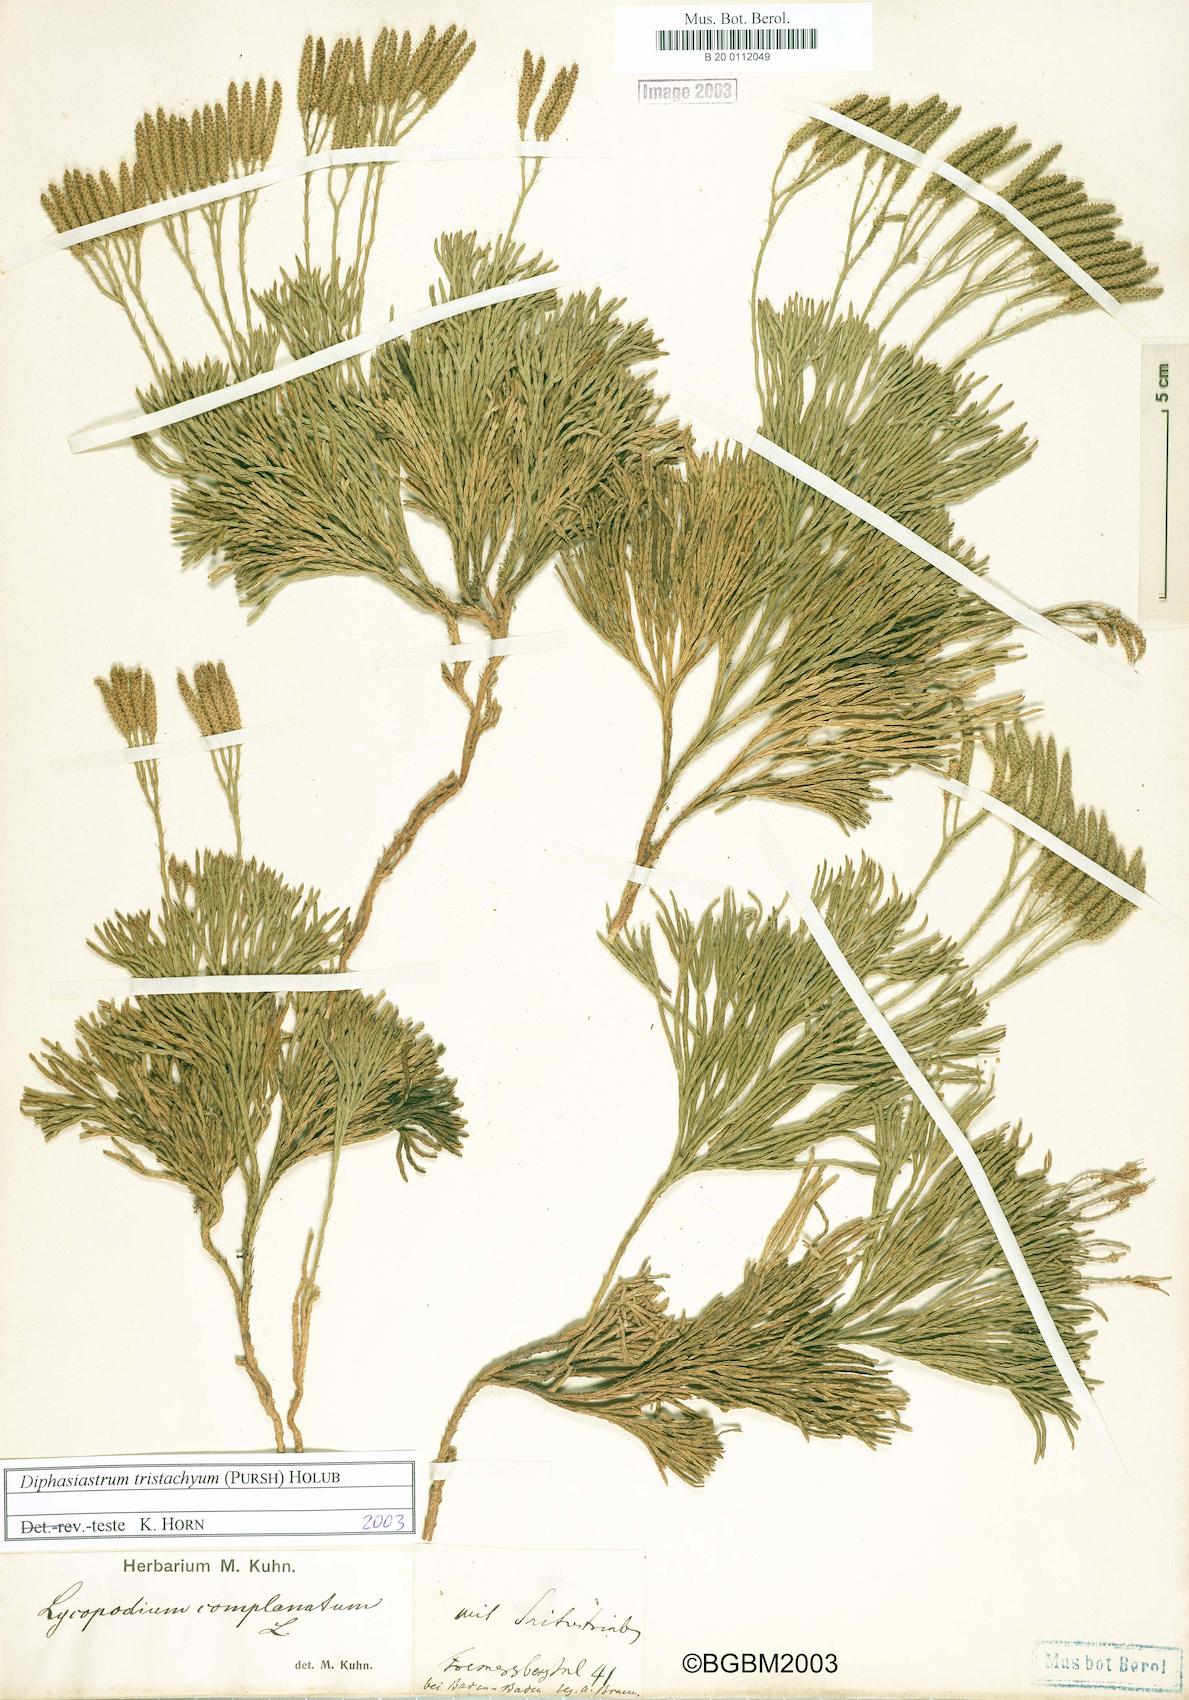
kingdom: Plantae
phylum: Tracheophyta
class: Lycopodiopsida
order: Lycopodiales
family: Lycopodiaceae
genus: Diphasiastrum
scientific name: Diphasiastrum tristachyum
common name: Blue ground-cedar
